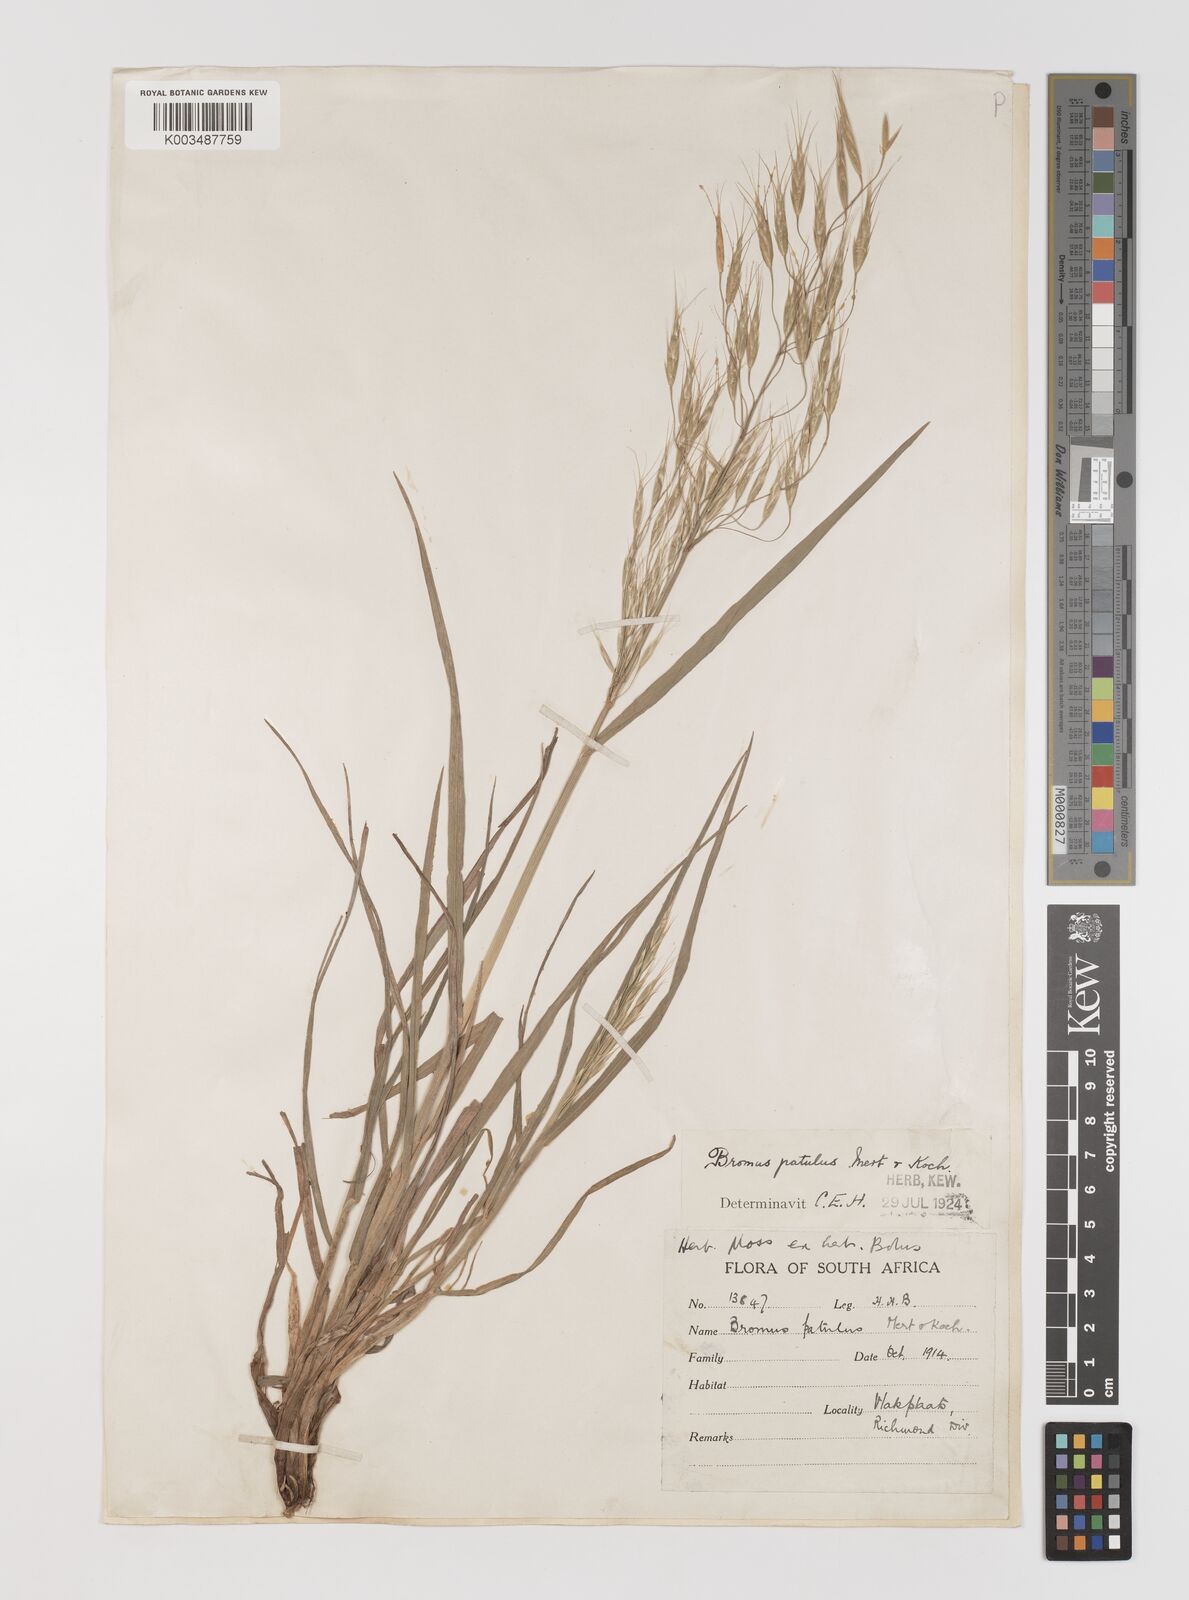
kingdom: Plantae
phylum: Tracheophyta
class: Liliopsida
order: Poales
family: Poaceae
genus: Bromus
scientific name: Bromus pectinatus
